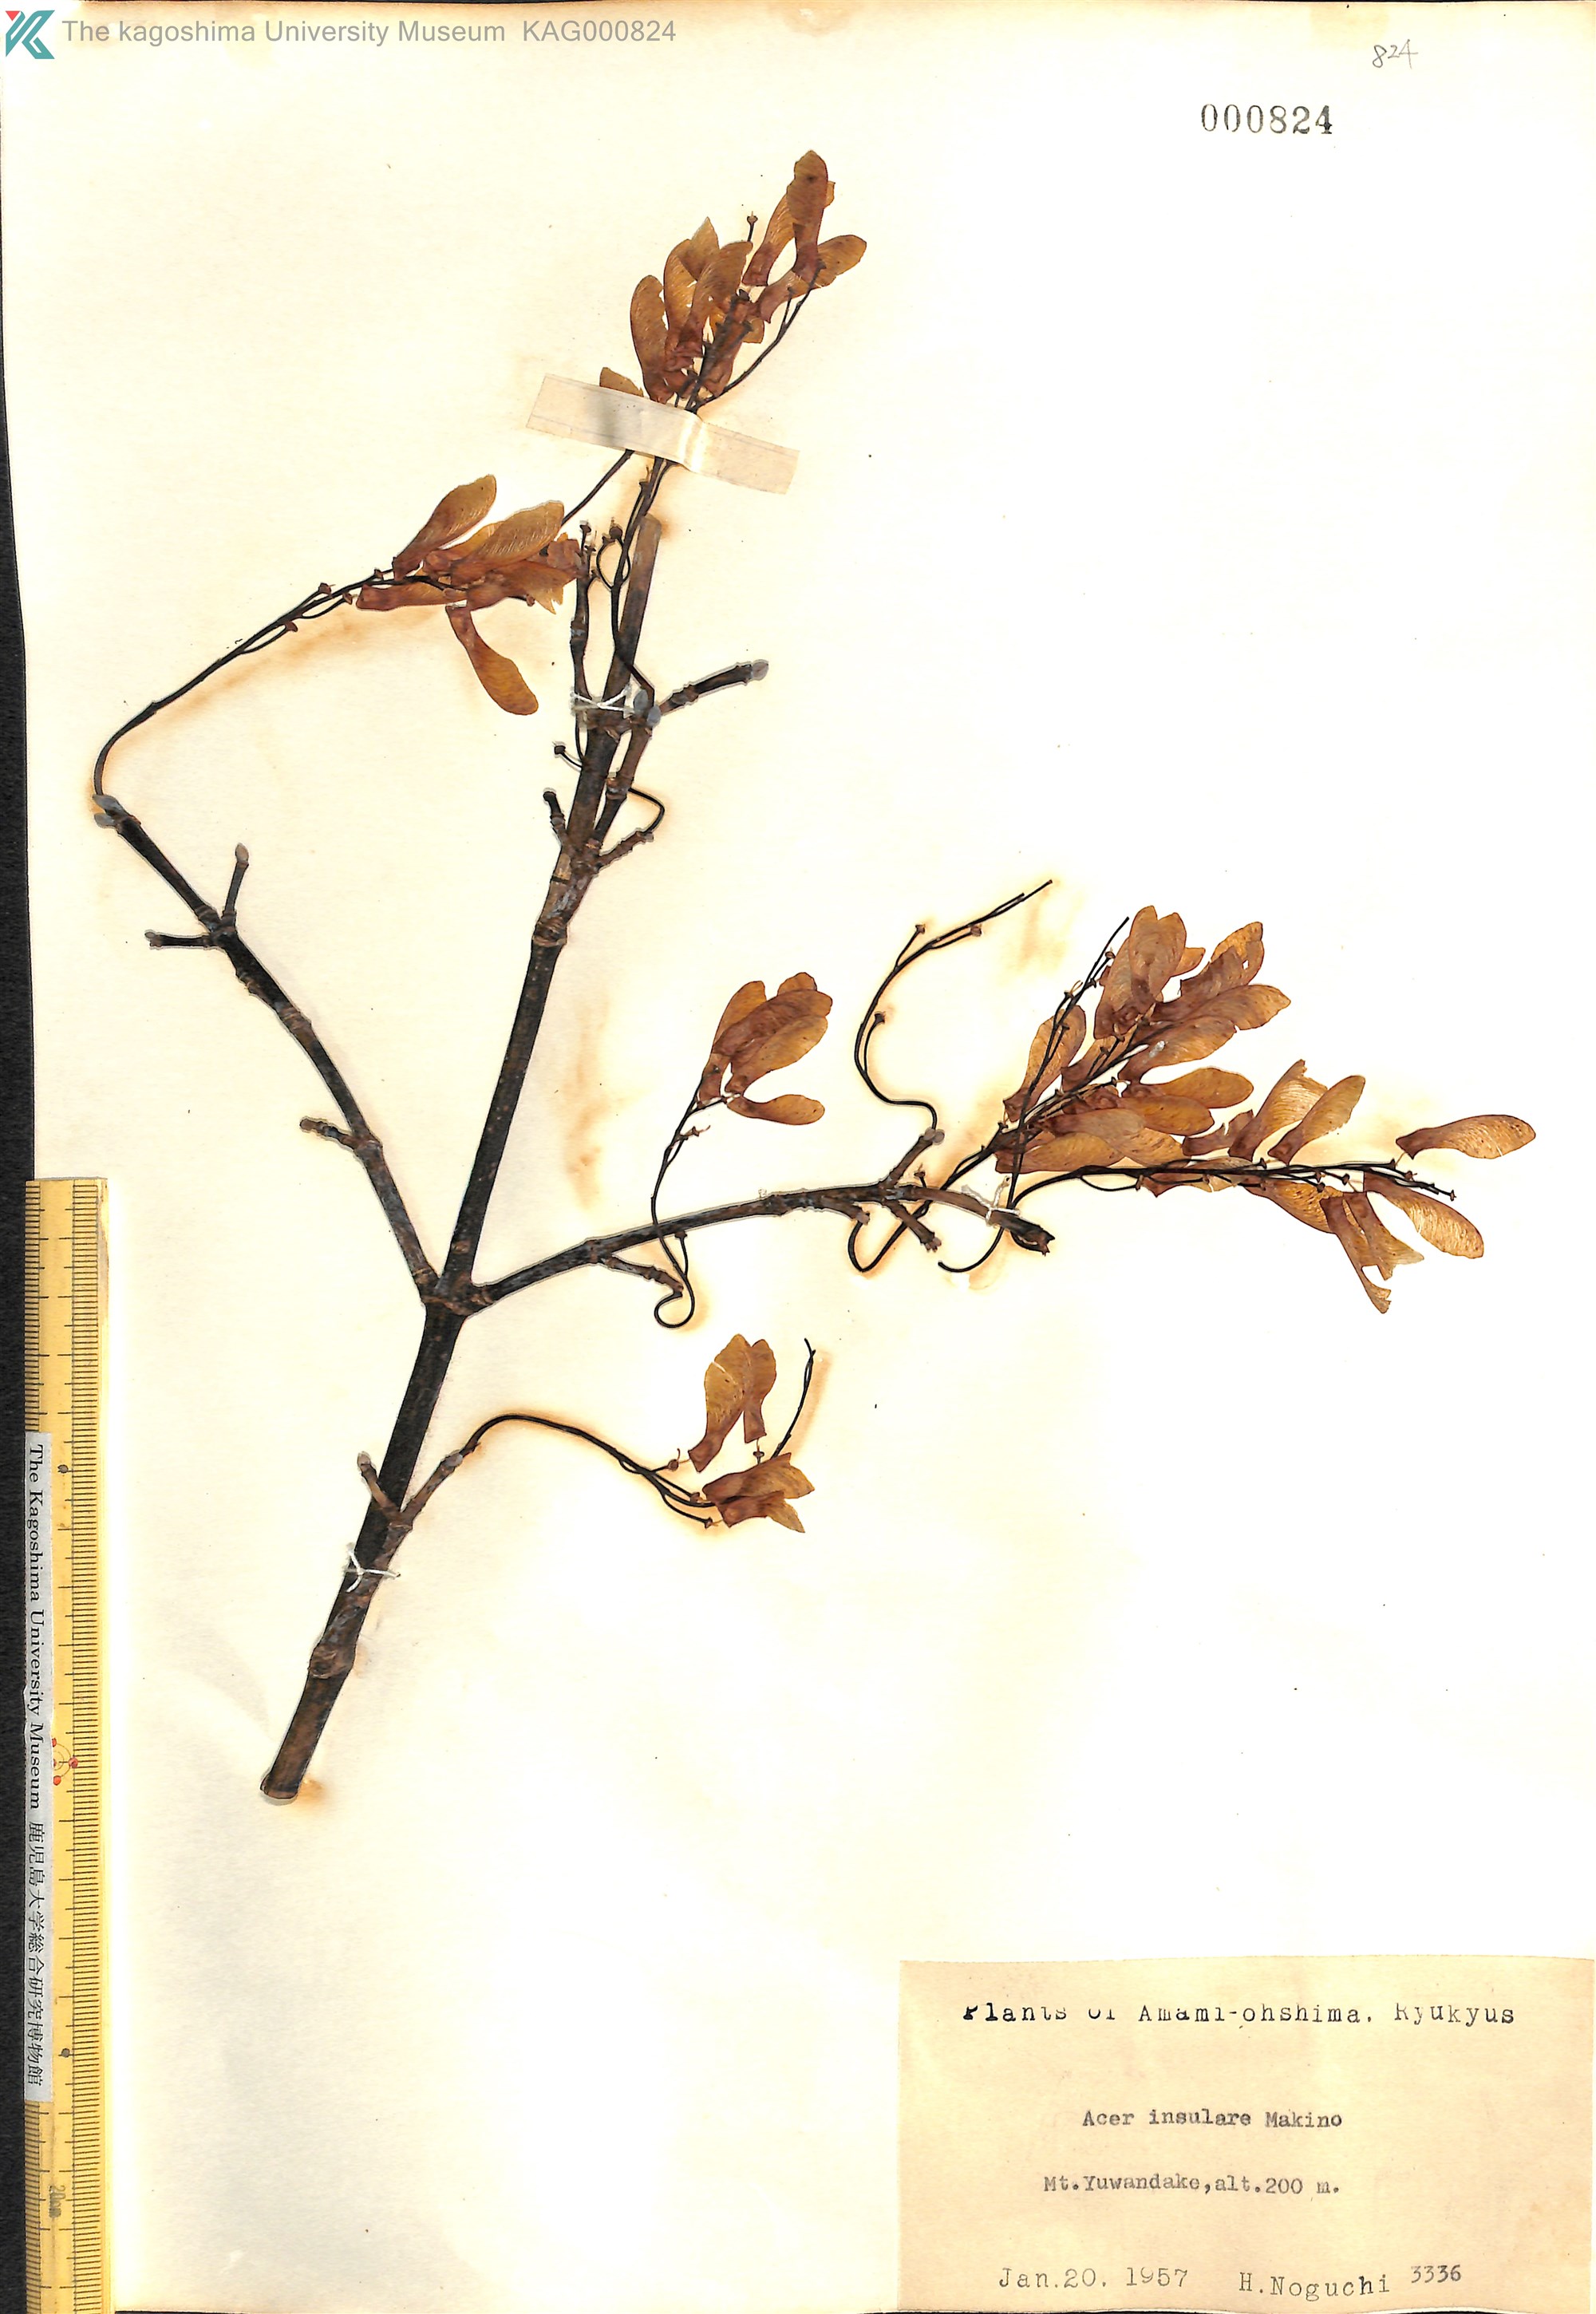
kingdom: Plantae
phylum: Tracheophyta
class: Magnoliopsida
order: Sapindales
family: Sapindaceae
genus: Acer
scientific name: Acer caudatifolium
